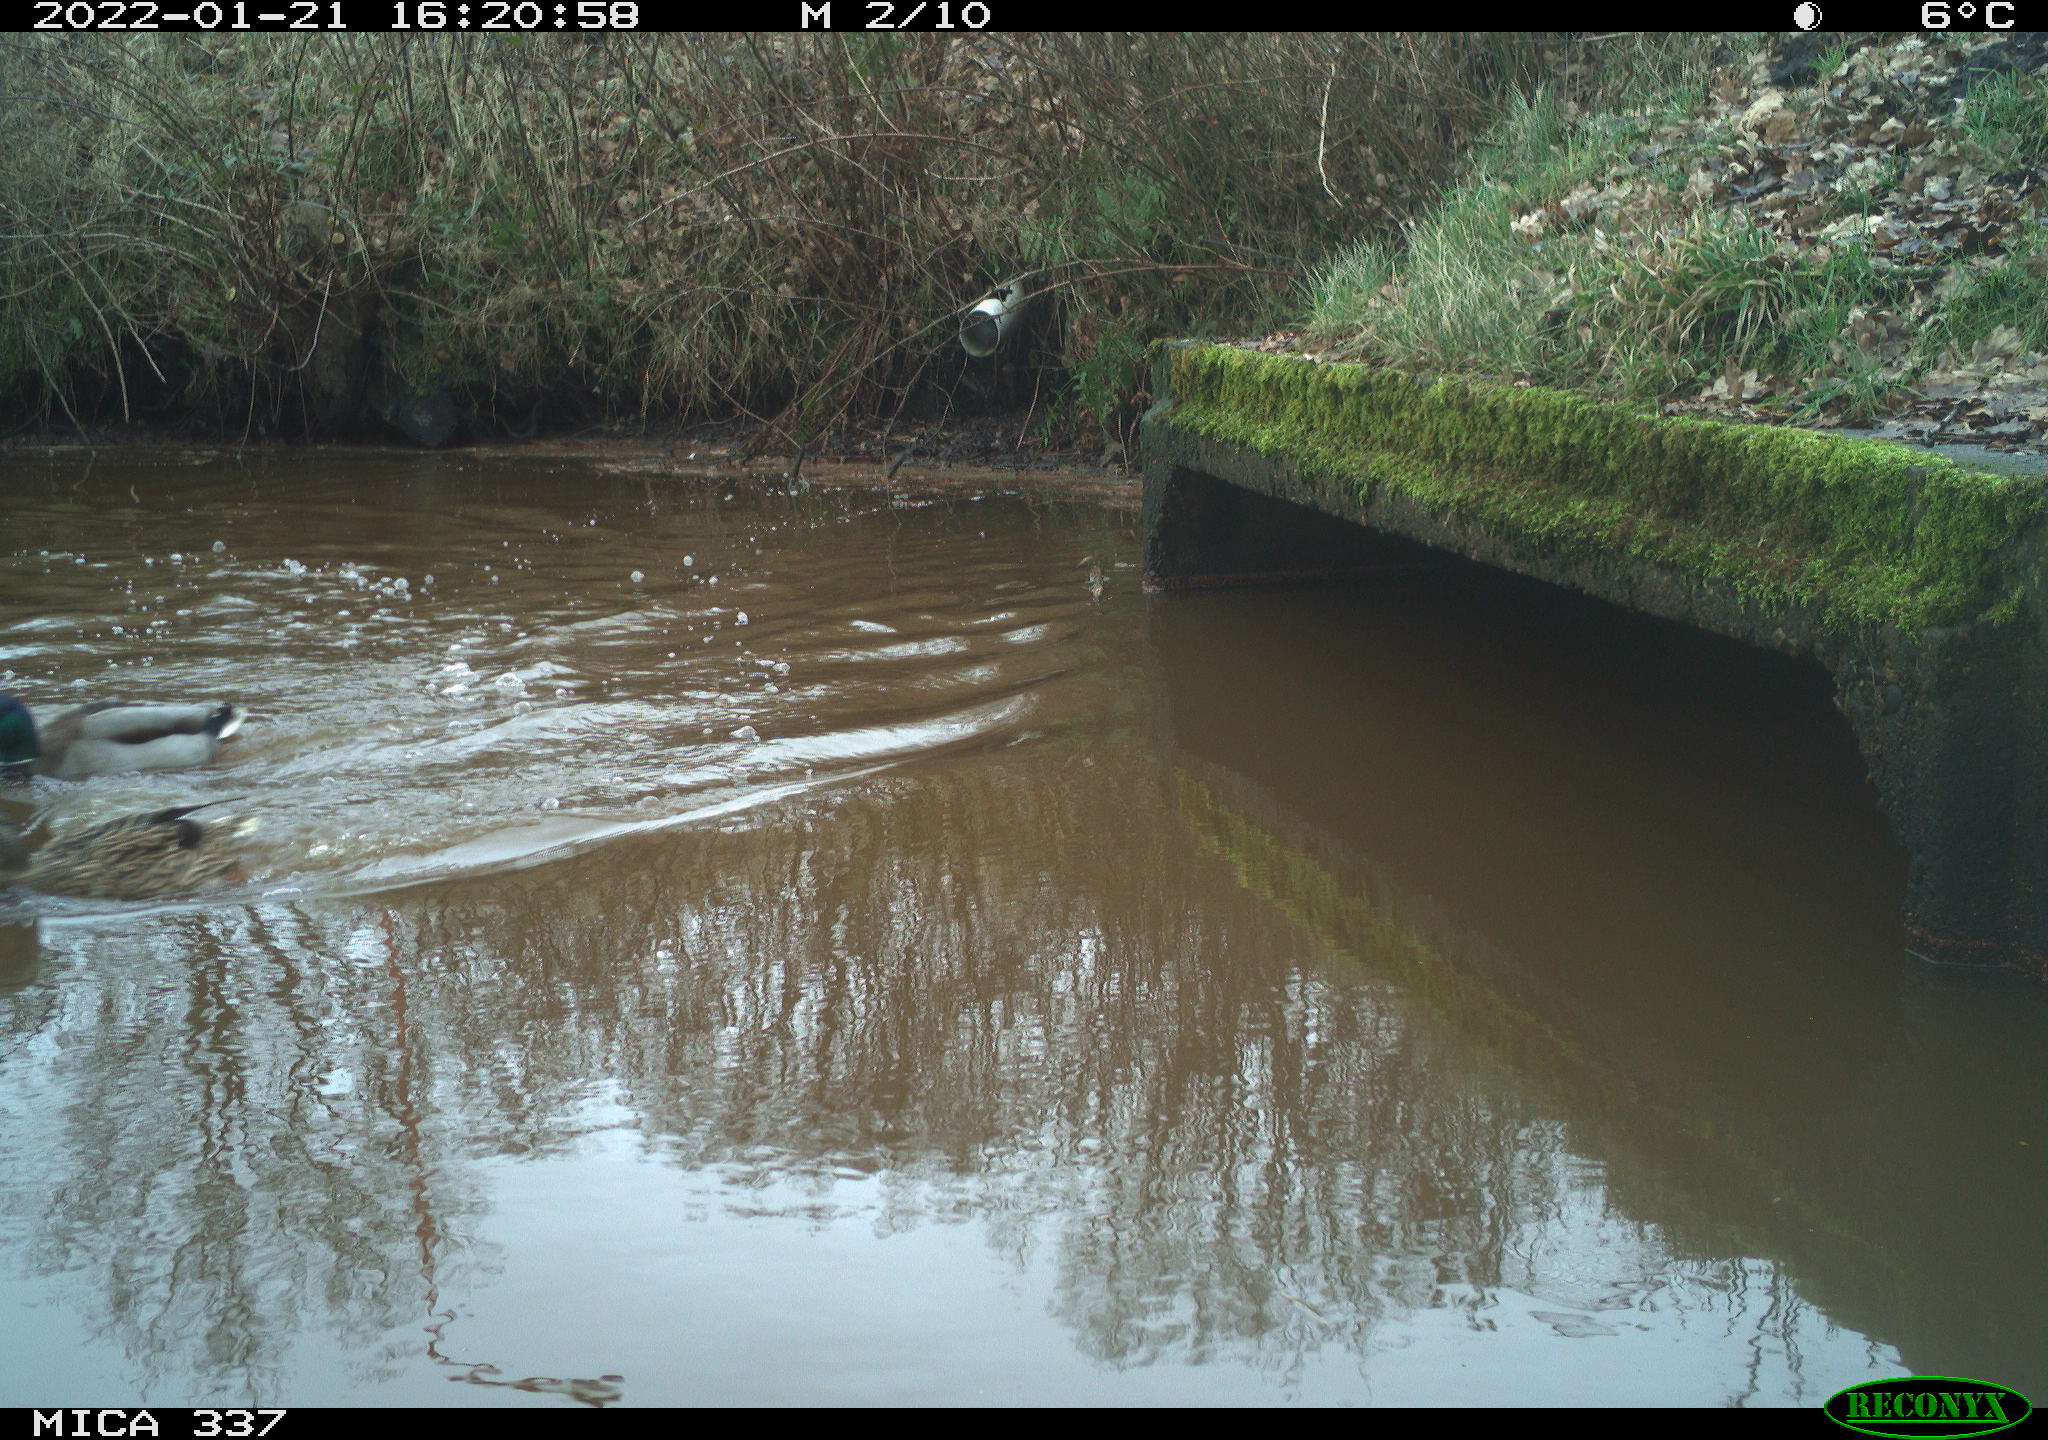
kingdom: Animalia
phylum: Chordata
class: Aves
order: Anseriformes
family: Anatidae
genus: Anas
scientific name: Anas platyrhynchos
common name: Mallard
